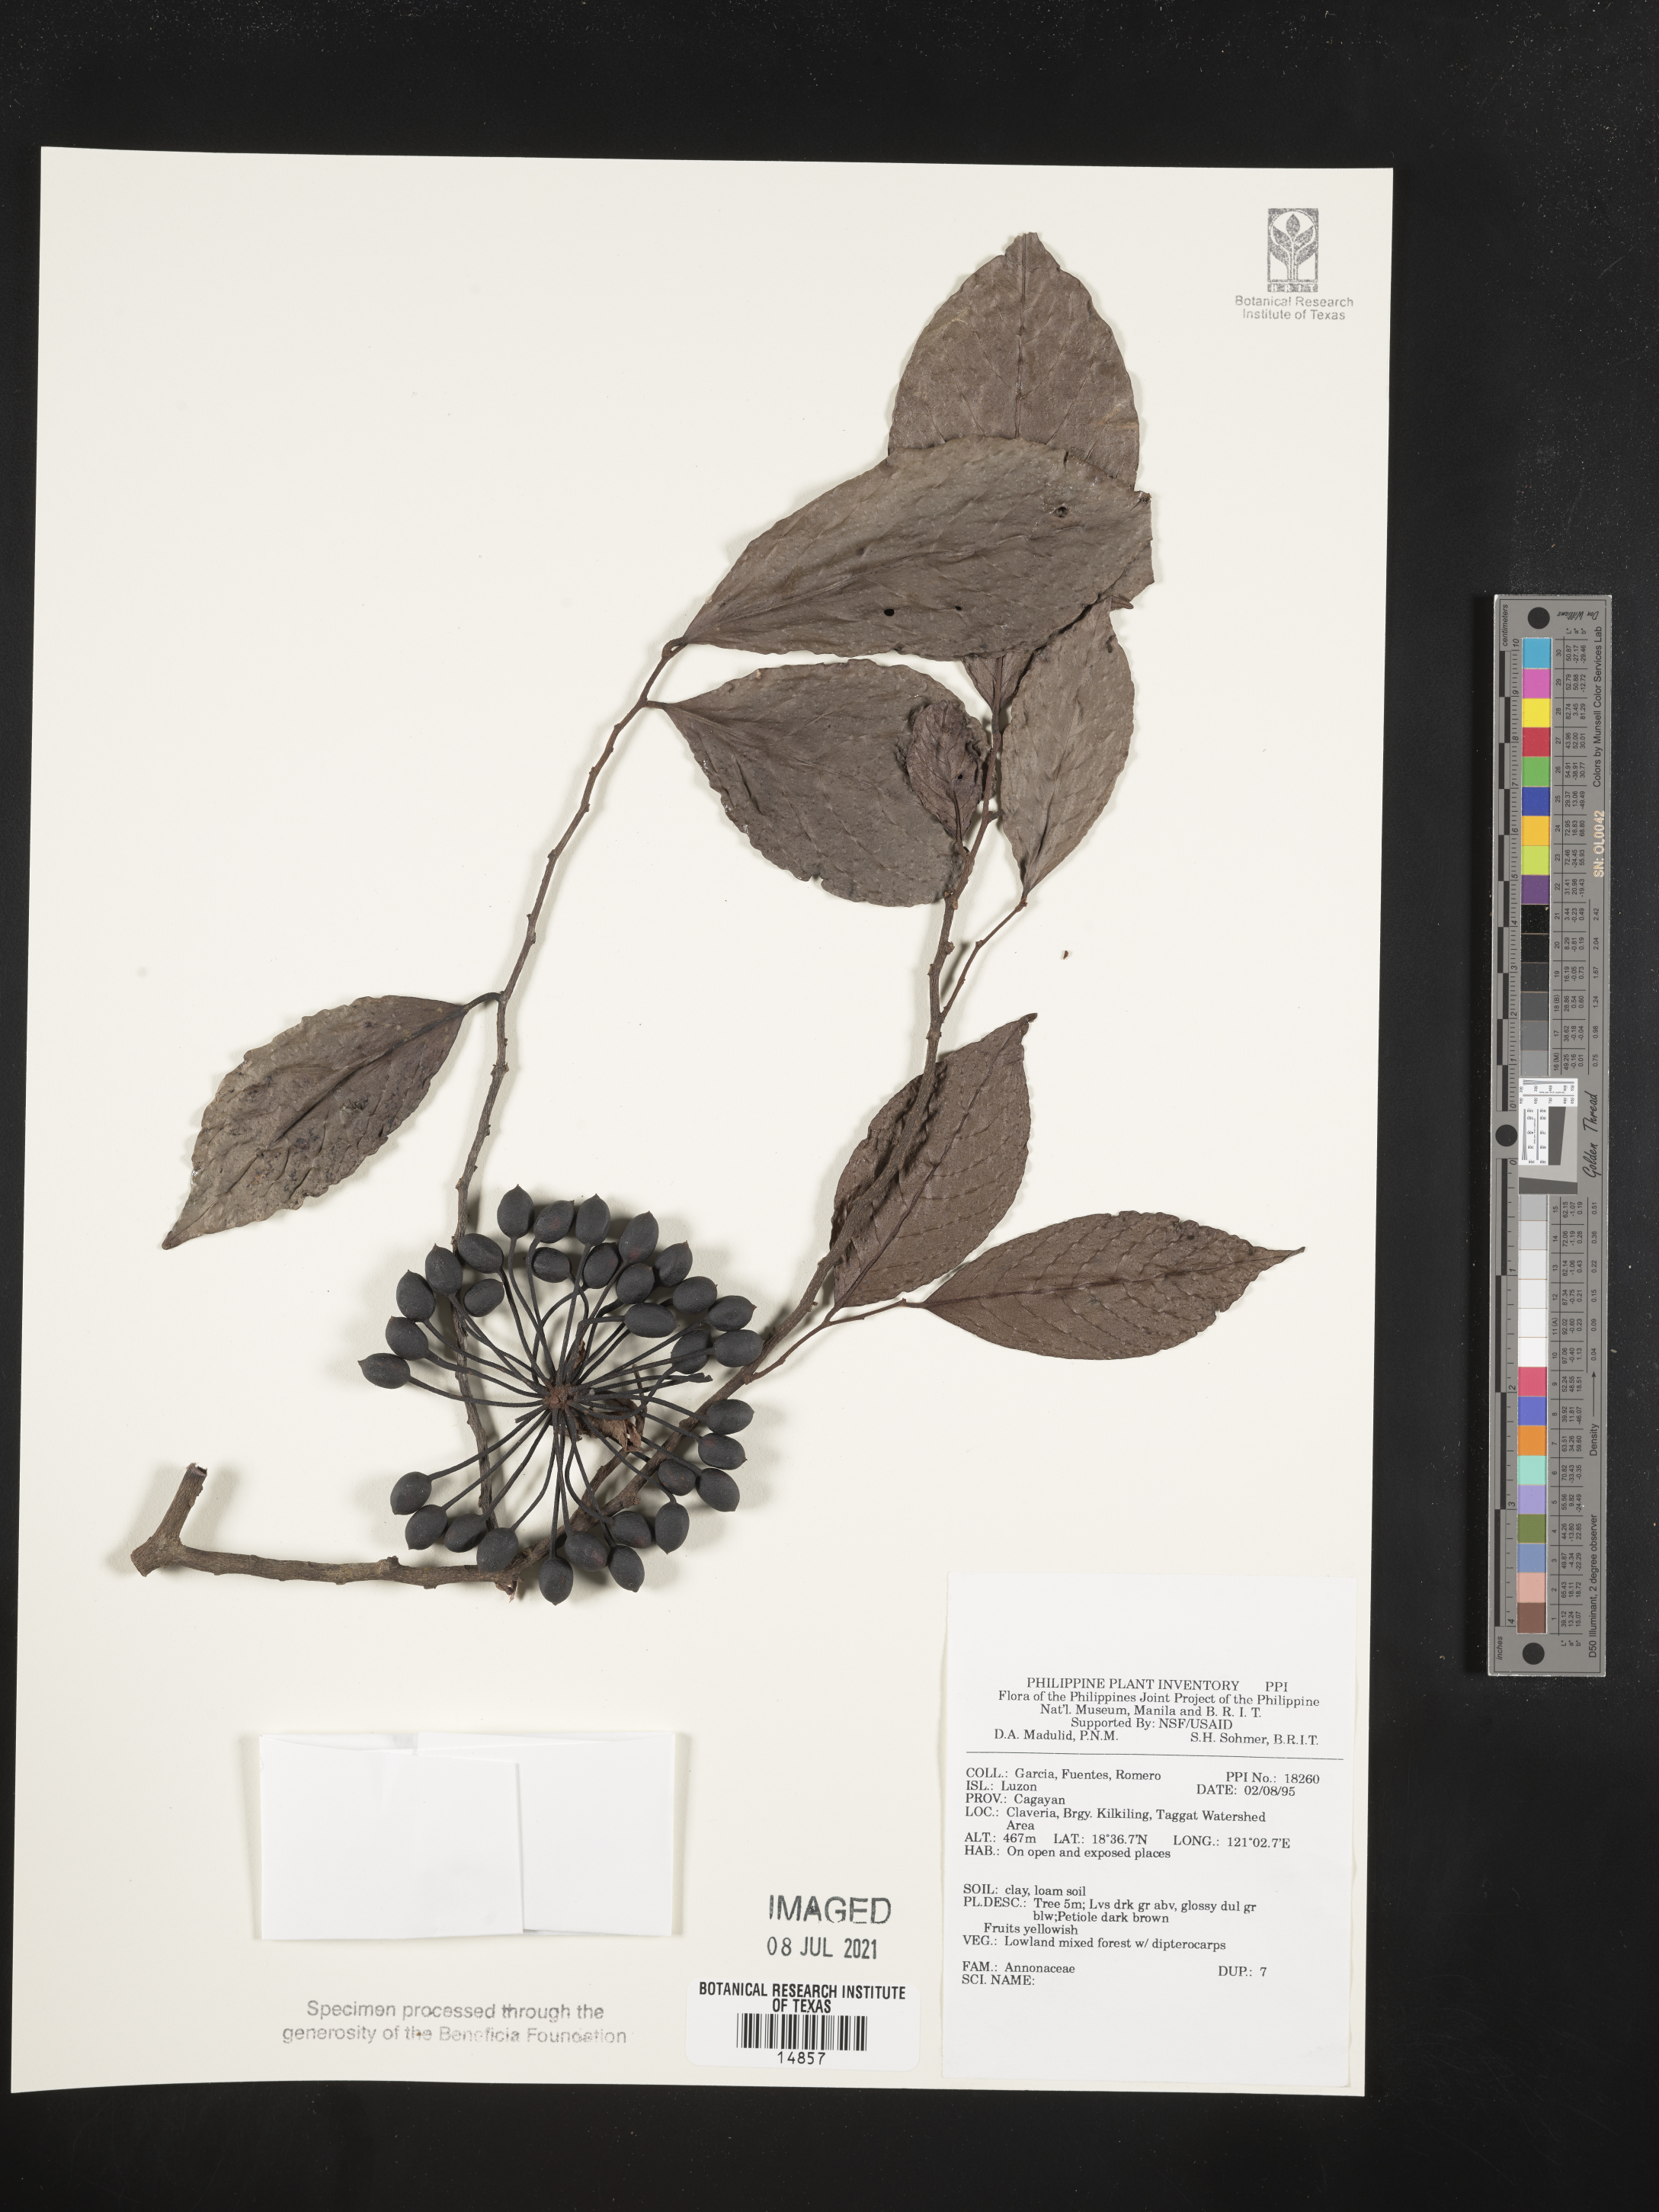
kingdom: Plantae
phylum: Tracheophyta
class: Magnoliopsida
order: Magnoliales
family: Annonaceae
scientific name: Annonaceae
